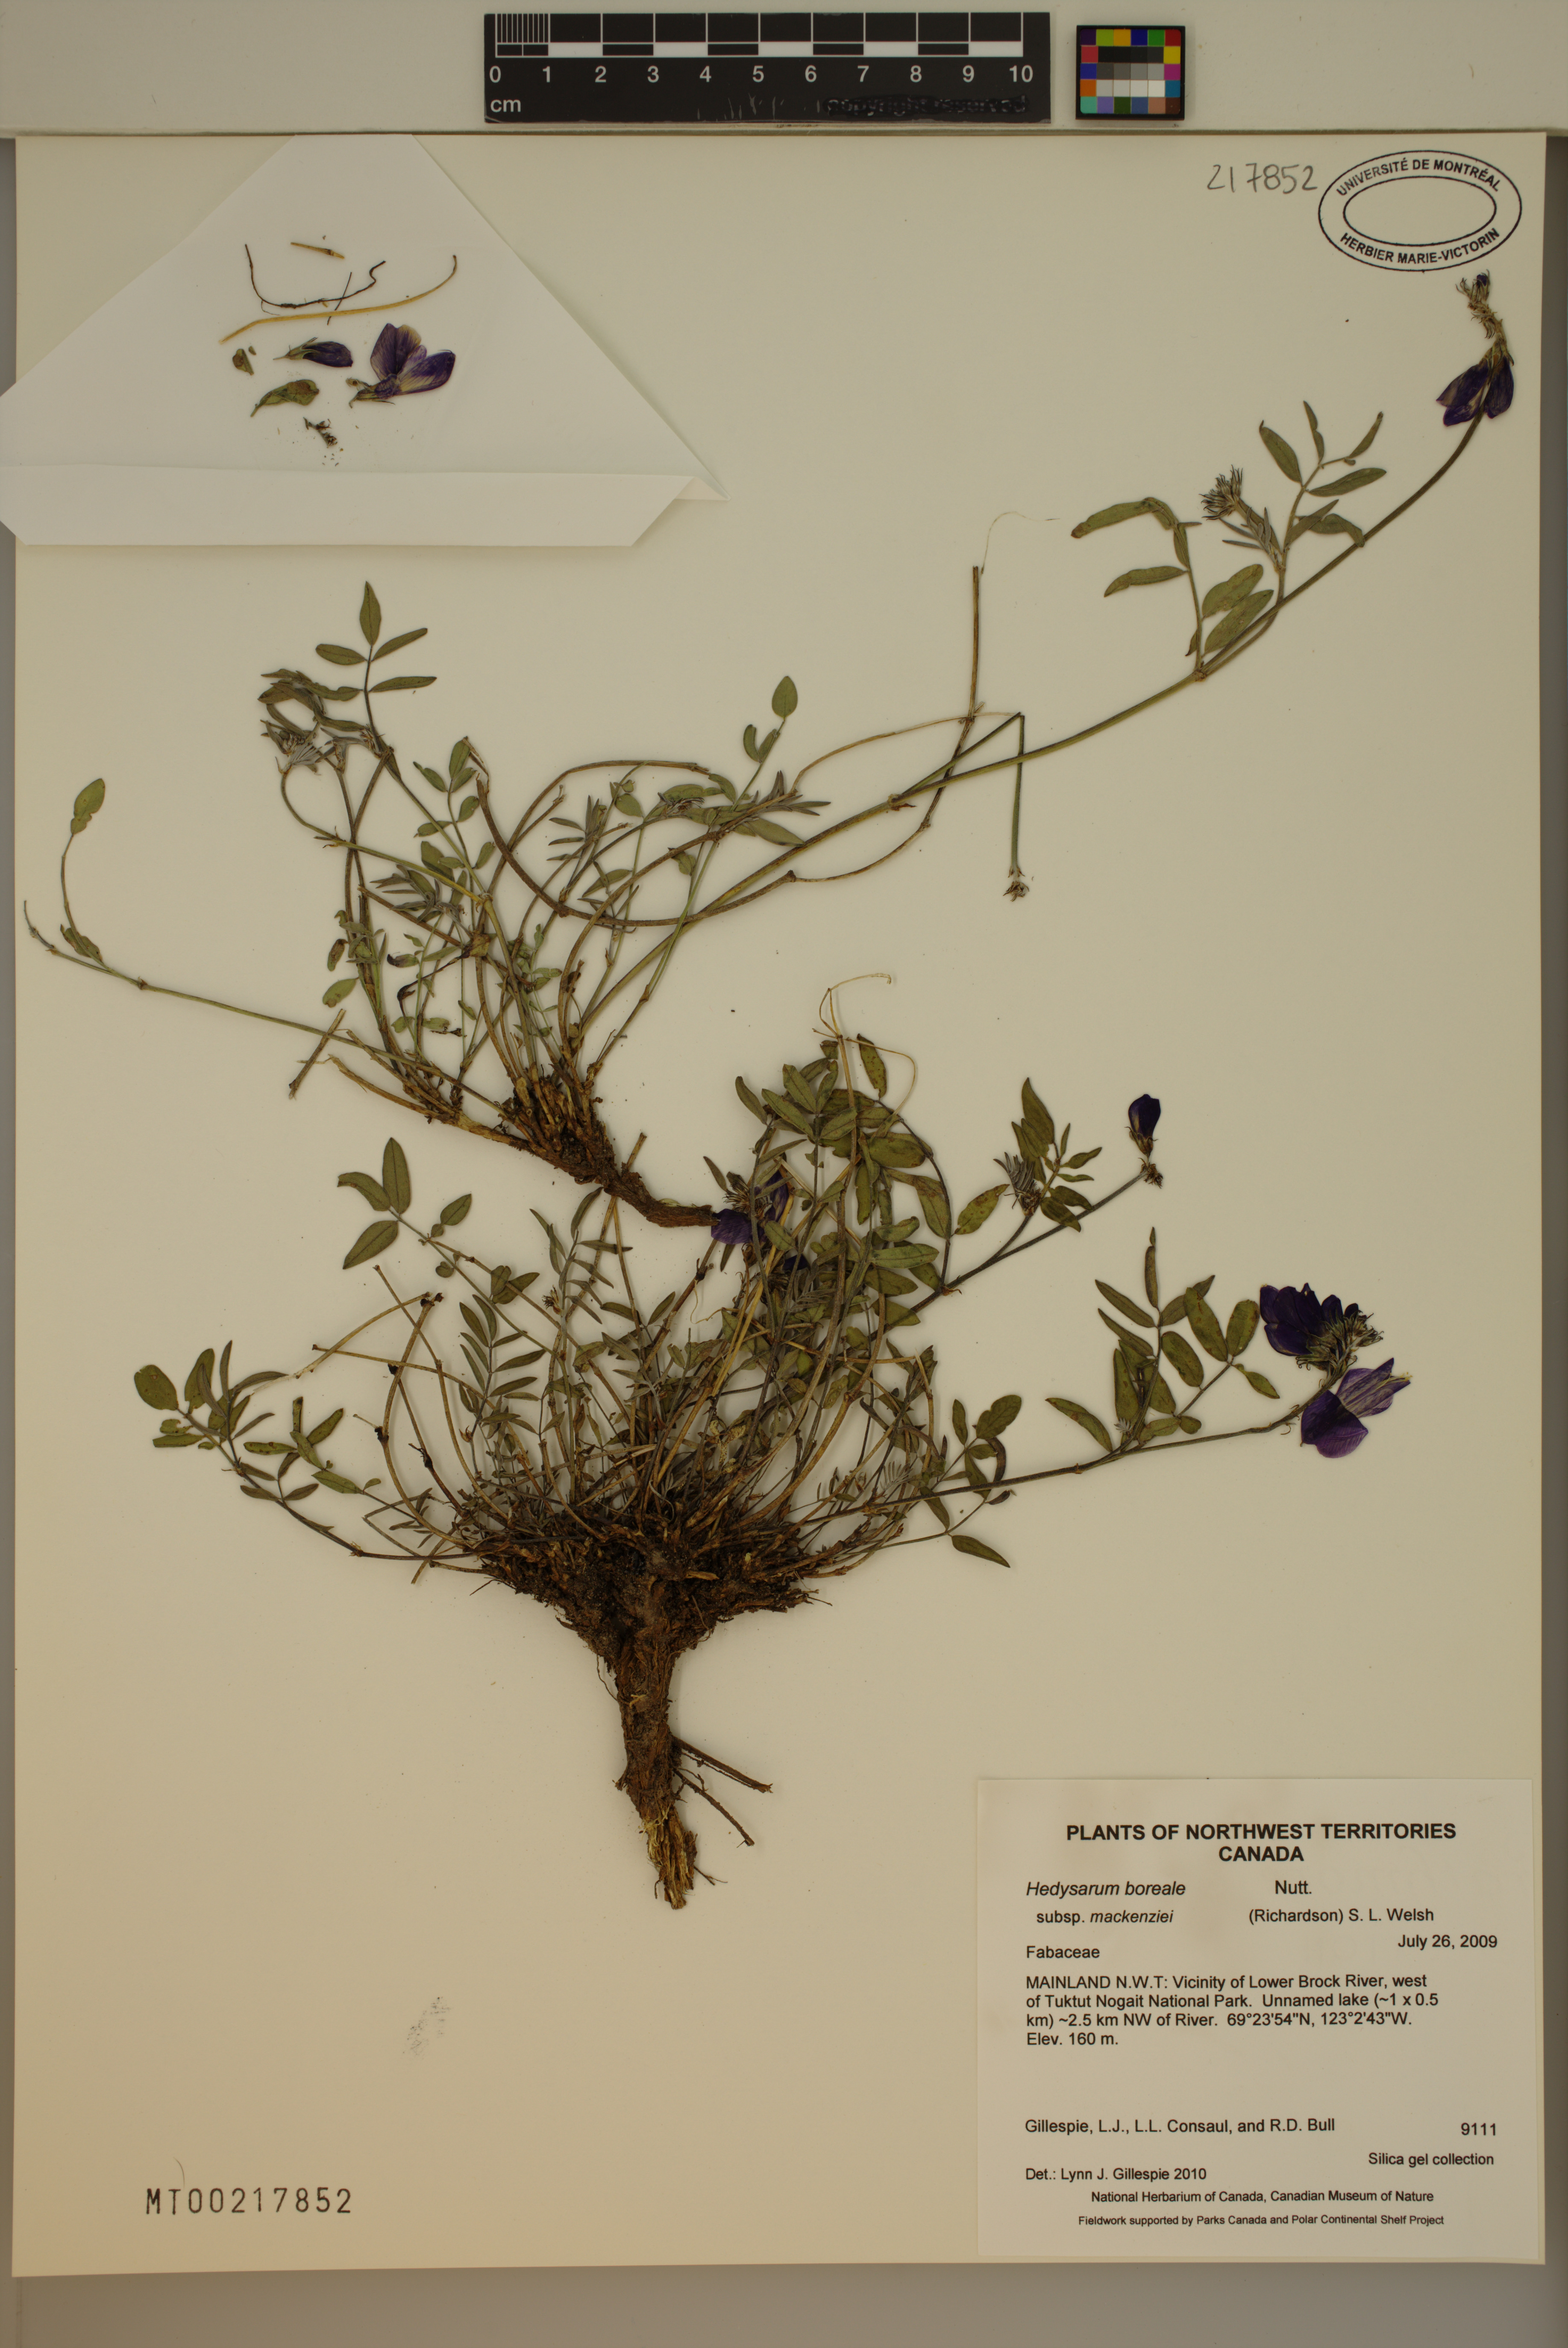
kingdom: Plantae
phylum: Tracheophyta
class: Magnoliopsida
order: Fabales
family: Fabaceae
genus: Hedysarum
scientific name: Hedysarum boreale
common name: Northern sweet-vetch
